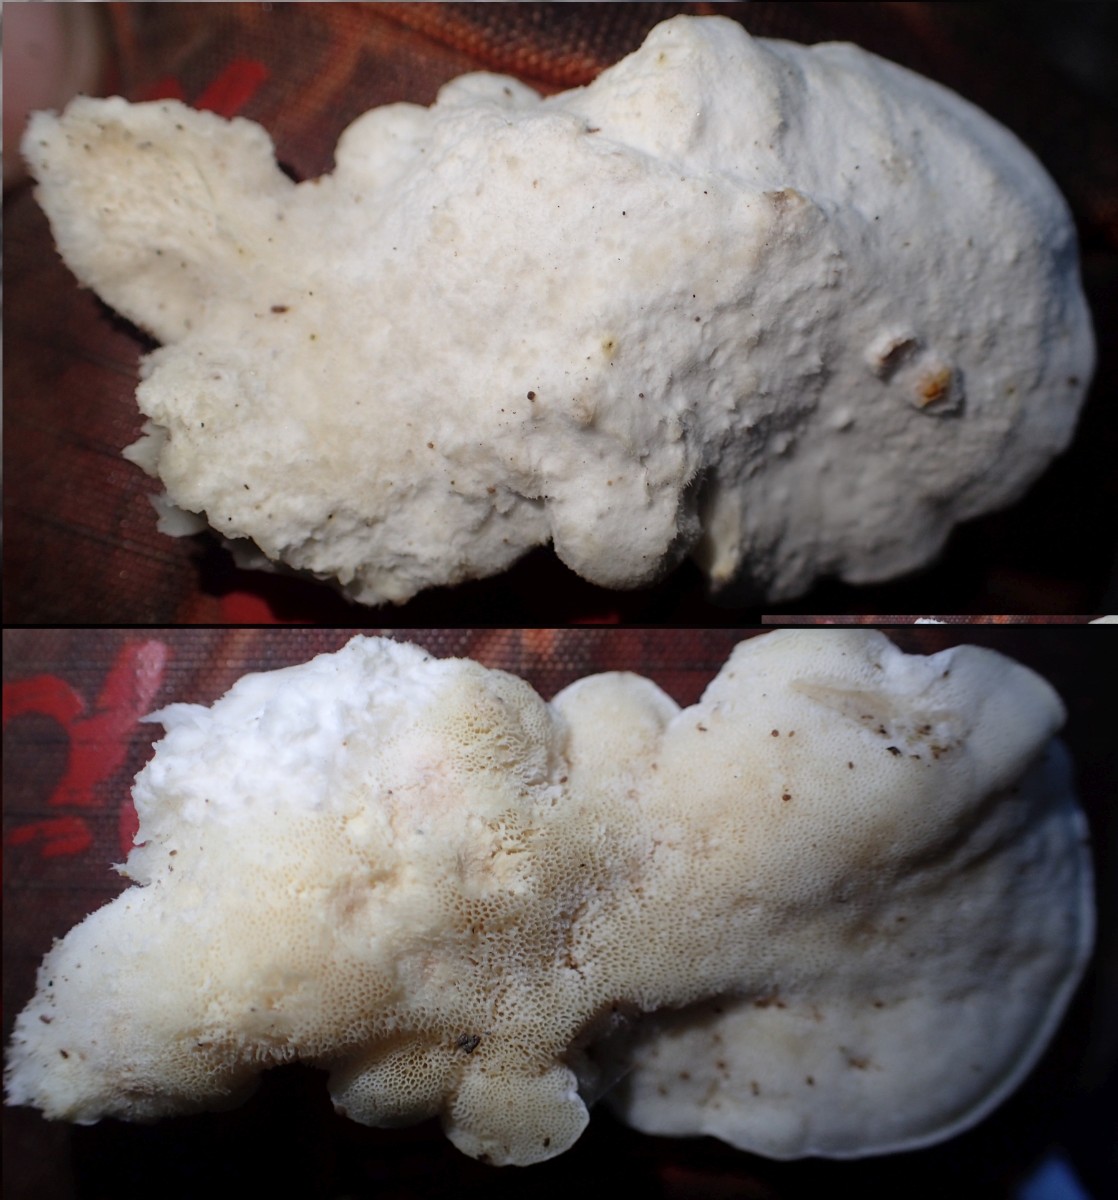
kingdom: Fungi
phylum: Basidiomycota
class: Agaricomycetes
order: Polyporales
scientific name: Polyporales
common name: poresvampordenen
